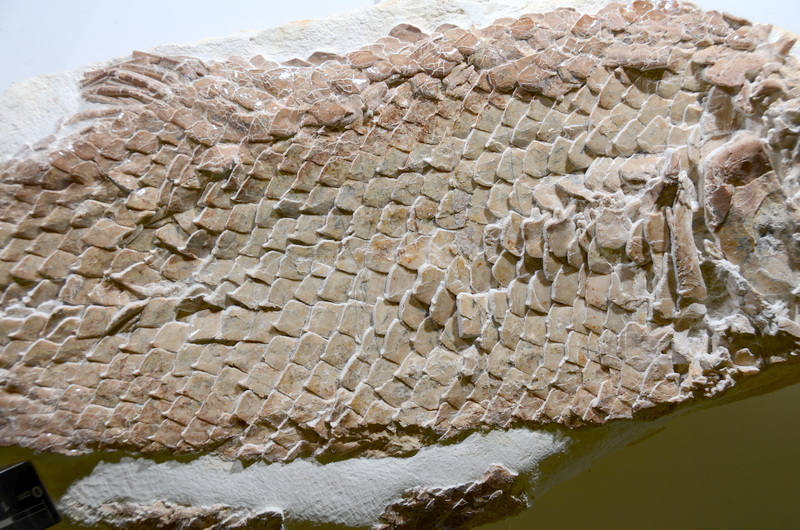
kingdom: Animalia
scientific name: Animalia
